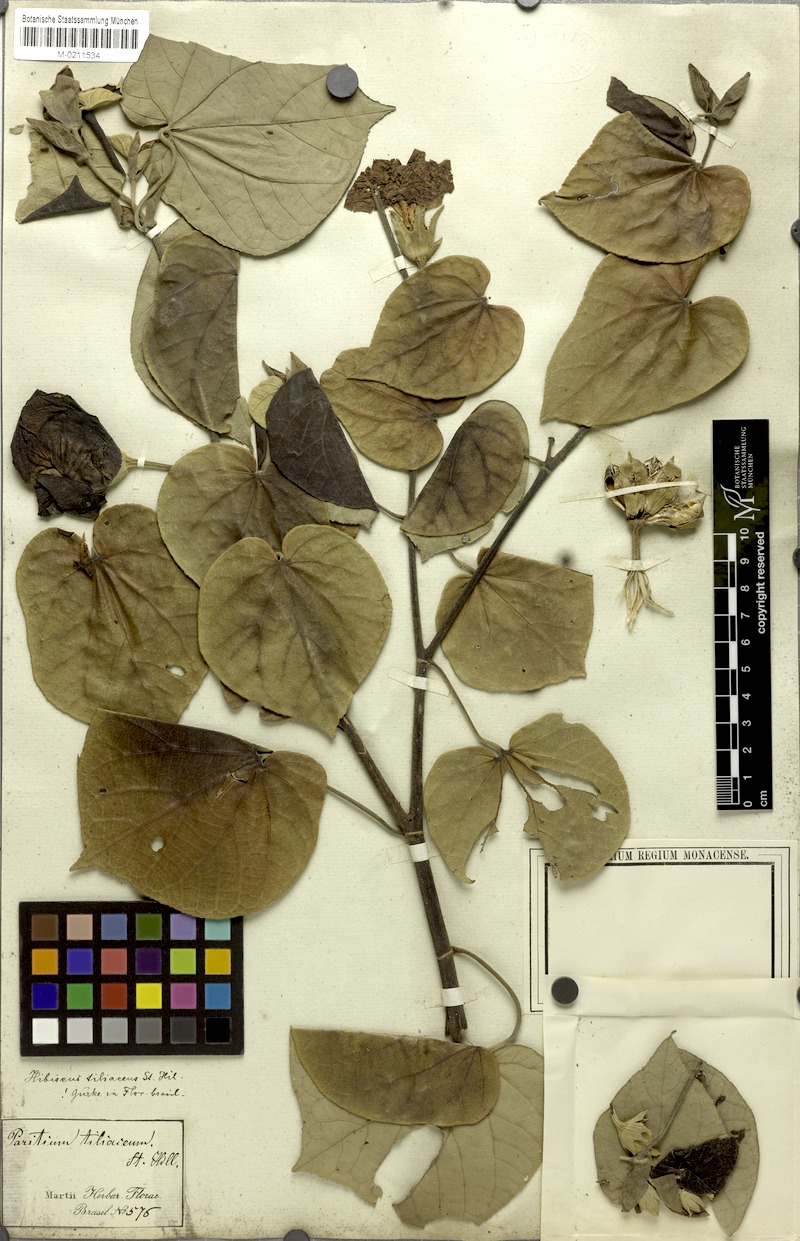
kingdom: Plantae
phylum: Tracheophyta
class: Magnoliopsida
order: Malvales
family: Malvaceae
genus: Talipariti
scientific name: Talipariti tiliaceum
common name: Sea hibiscus
